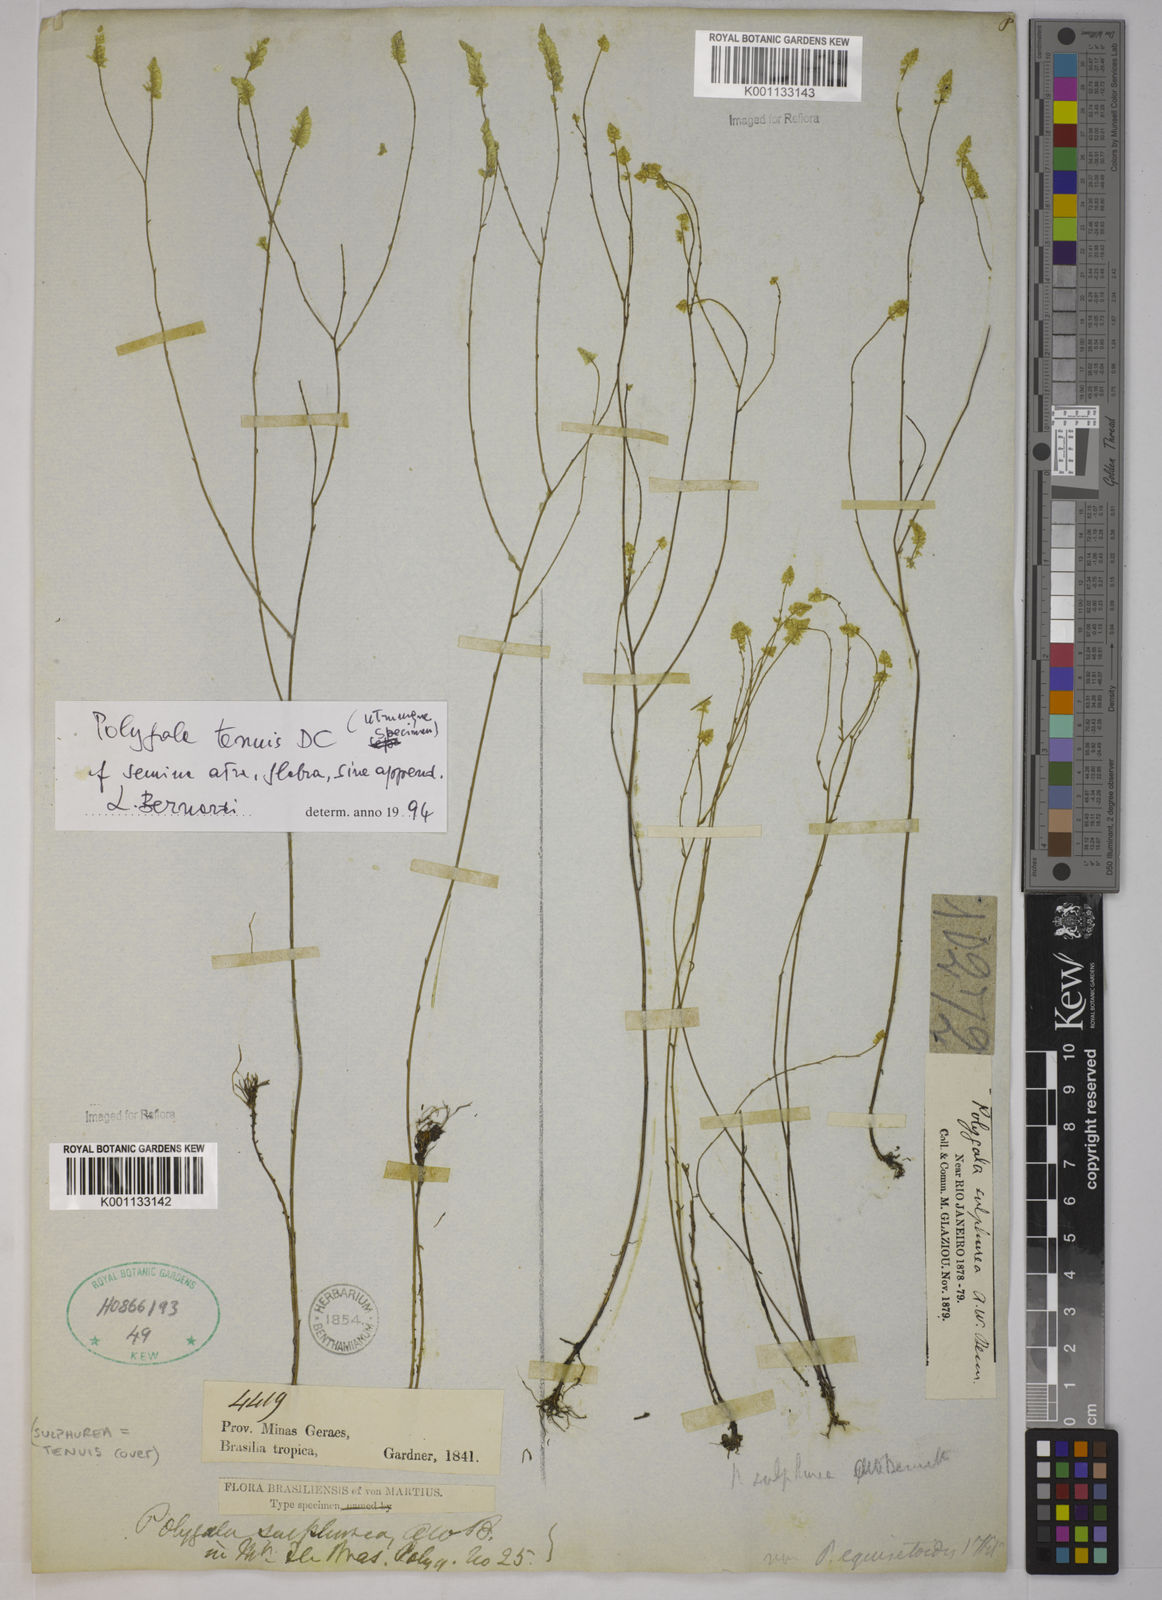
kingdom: Plantae
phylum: Tracheophyta
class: Magnoliopsida
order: Fabales
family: Polygalaceae
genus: Polygala
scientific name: Polygala tenuis
